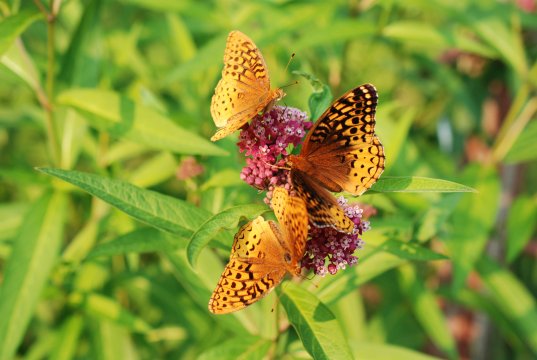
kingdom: Animalia
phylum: Arthropoda
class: Insecta
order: Lepidoptera
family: Nymphalidae
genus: Speyeria
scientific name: Speyeria cybele
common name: Great Spangled Fritillary
